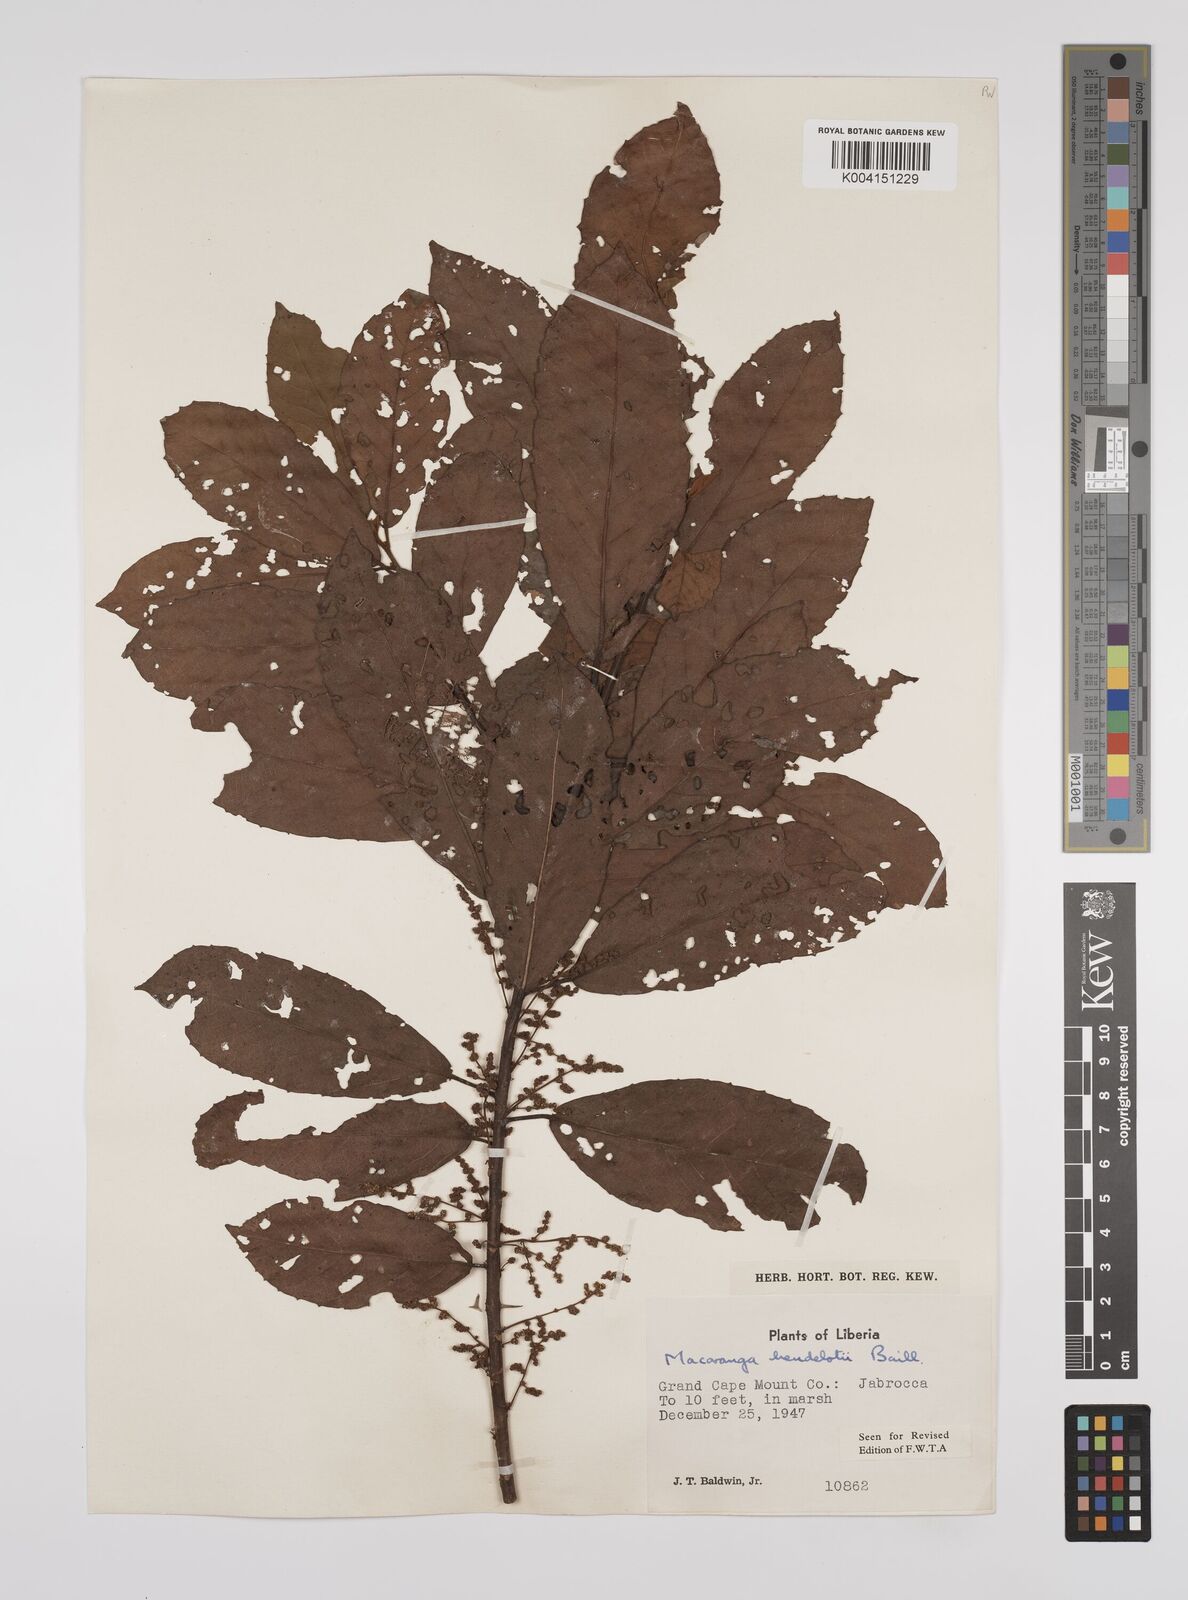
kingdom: Plantae
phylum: Tracheophyta
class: Magnoliopsida
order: Malpighiales
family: Euphorbiaceae
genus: Macaranga
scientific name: Macaranga heudelotii
